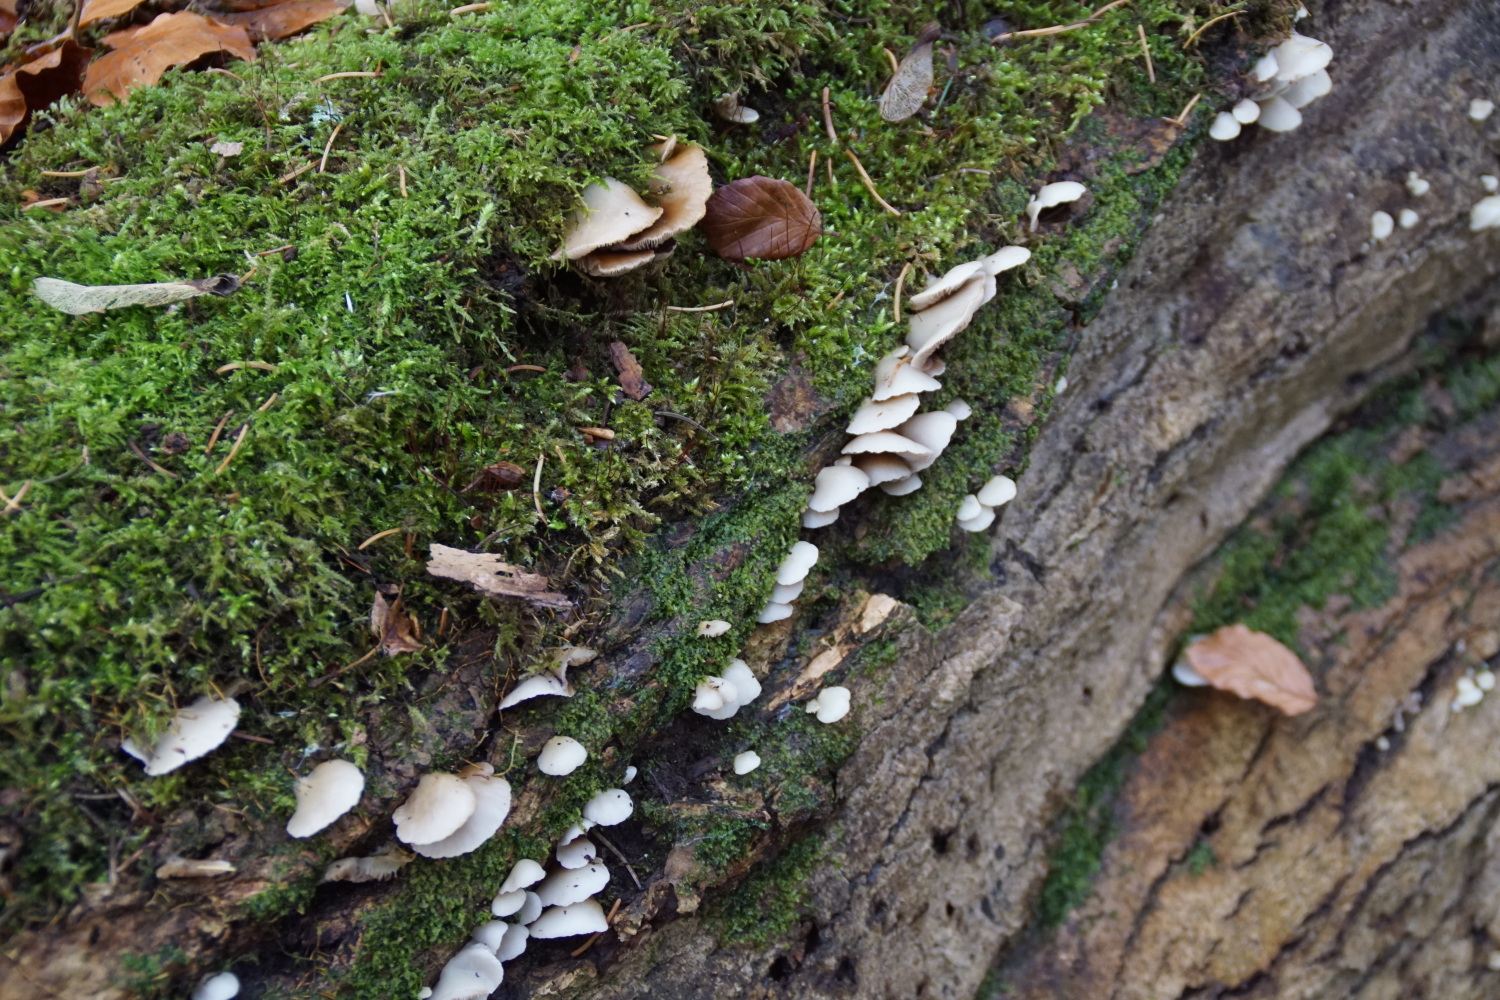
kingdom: Fungi
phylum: Basidiomycota
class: Agaricomycetes
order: Agaricales
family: Crepidotaceae
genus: Crepidotus
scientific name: Crepidotus mollis
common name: blød muslingesvamp
